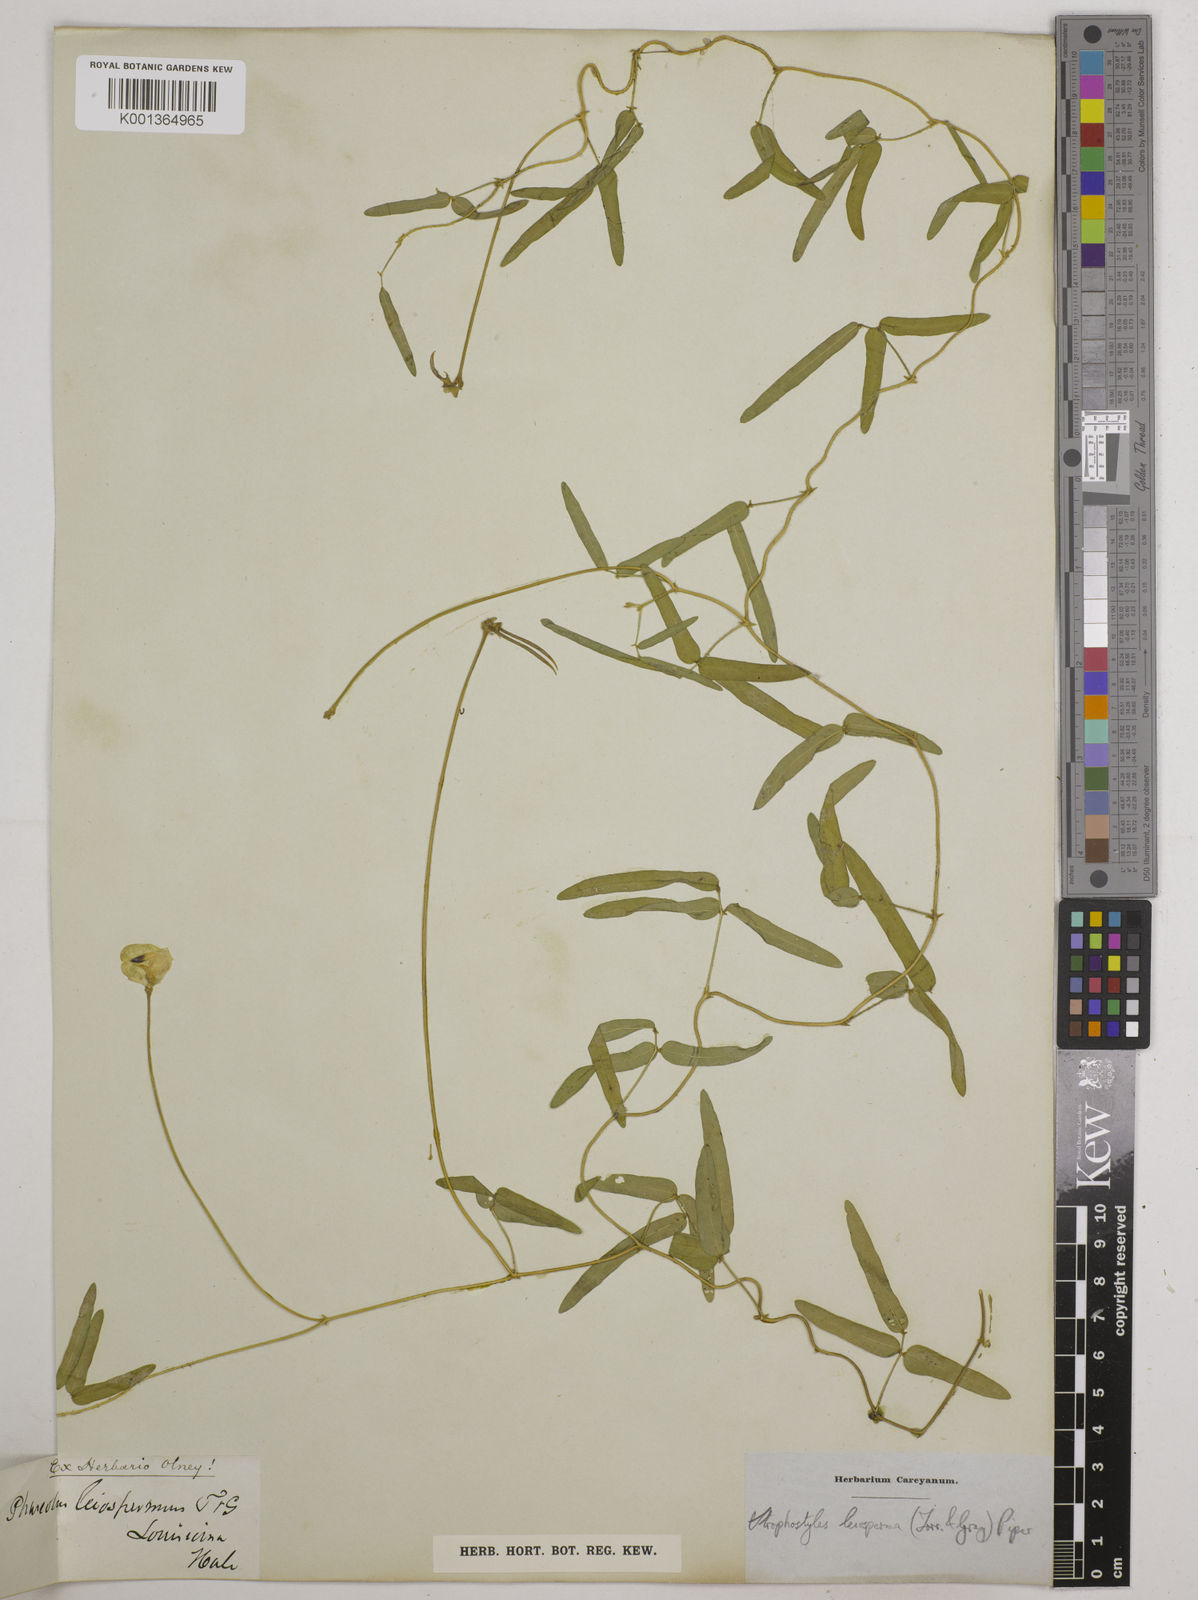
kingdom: Plantae
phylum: Tracheophyta
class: Magnoliopsida
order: Fabales
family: Fabaceae
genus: Strophostyles
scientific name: Strophostyles leiosperma
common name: Smooth-seed wild bean
